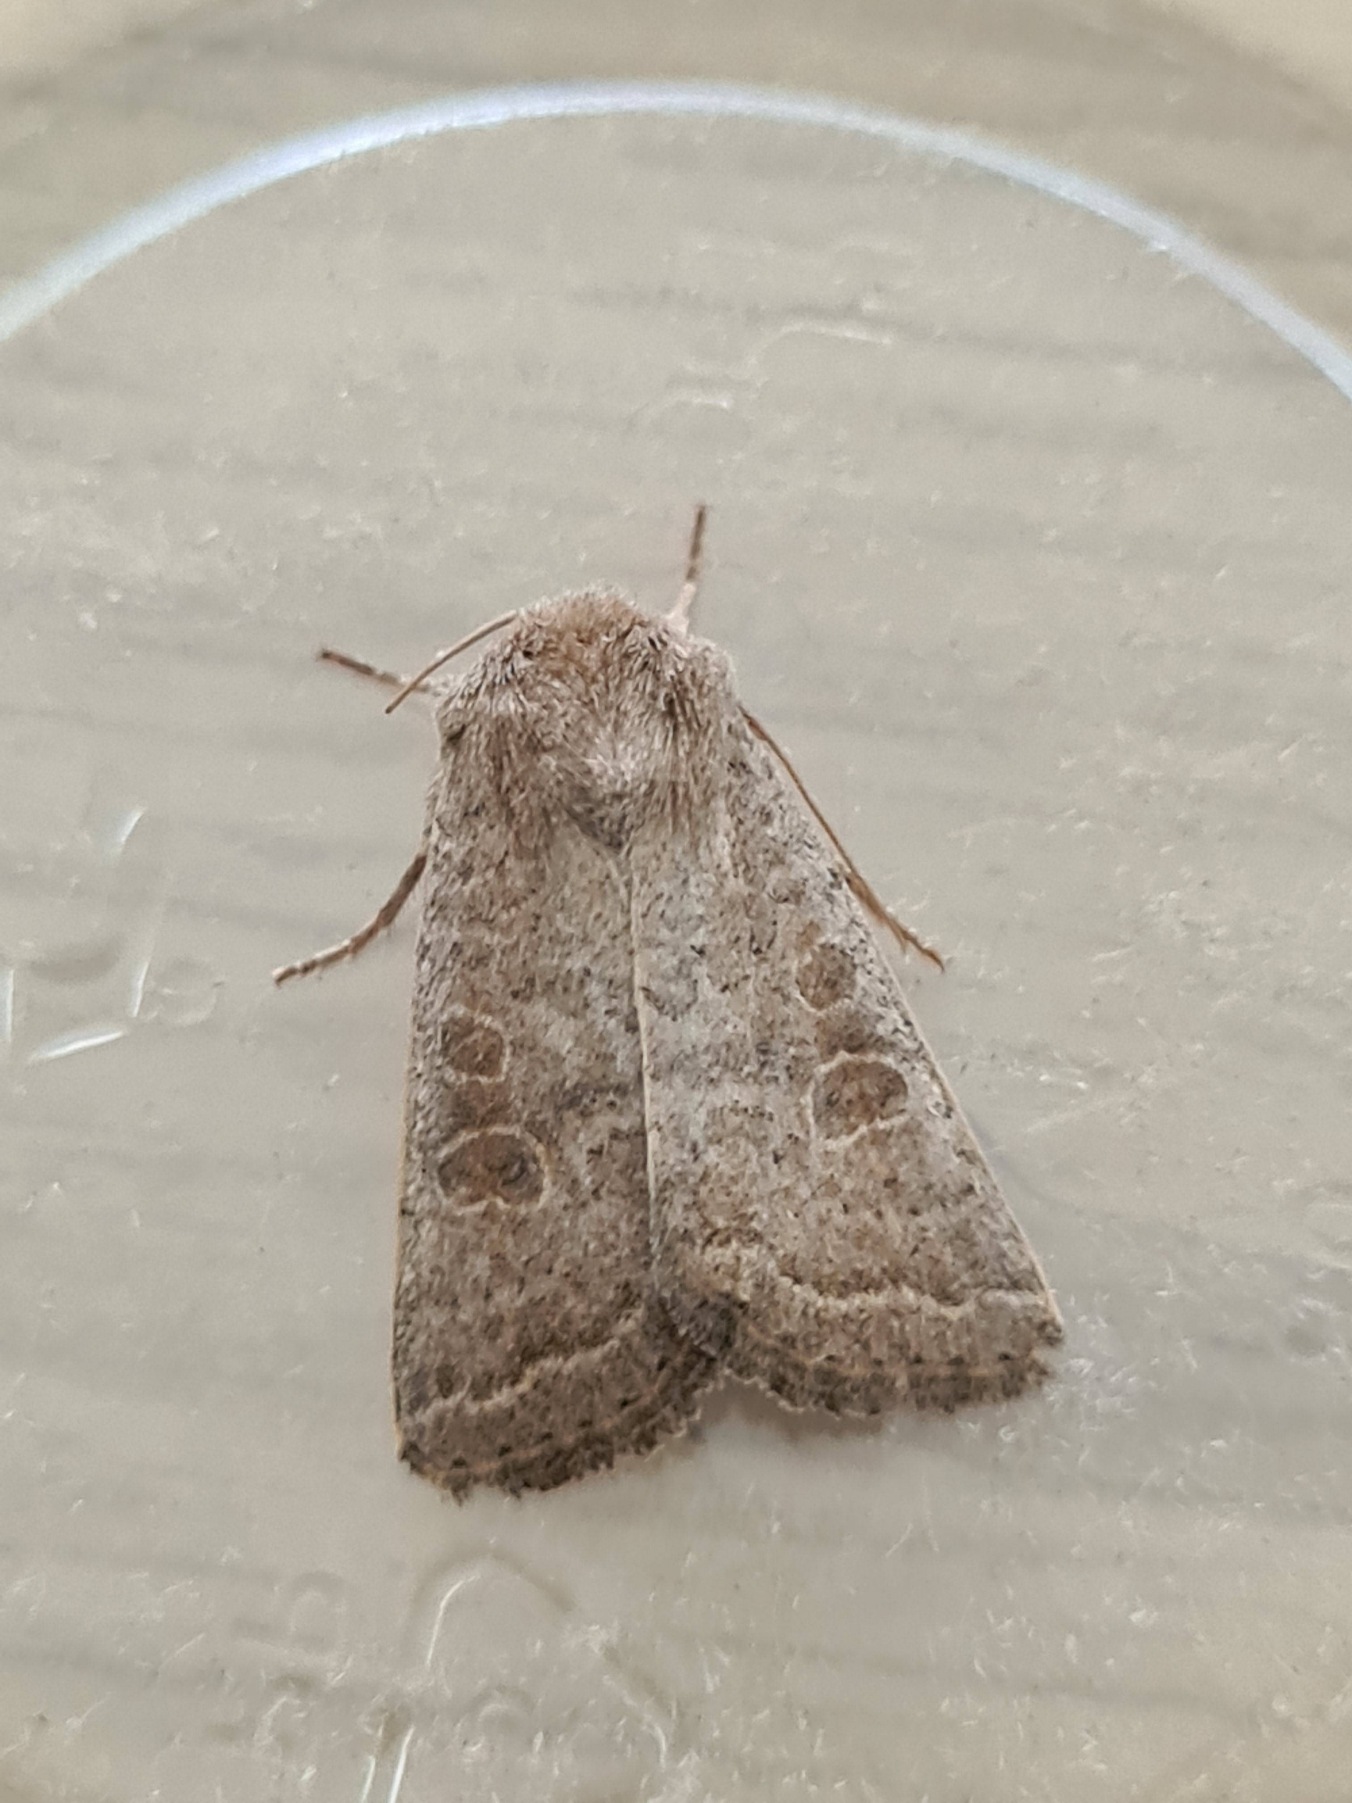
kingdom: Animalia
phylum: Arthropoda
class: Insecta
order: Lepidoptera
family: Noctuidae
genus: Hoplodrina
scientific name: Hoplodrina ambigua
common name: Tvivlsom mus
